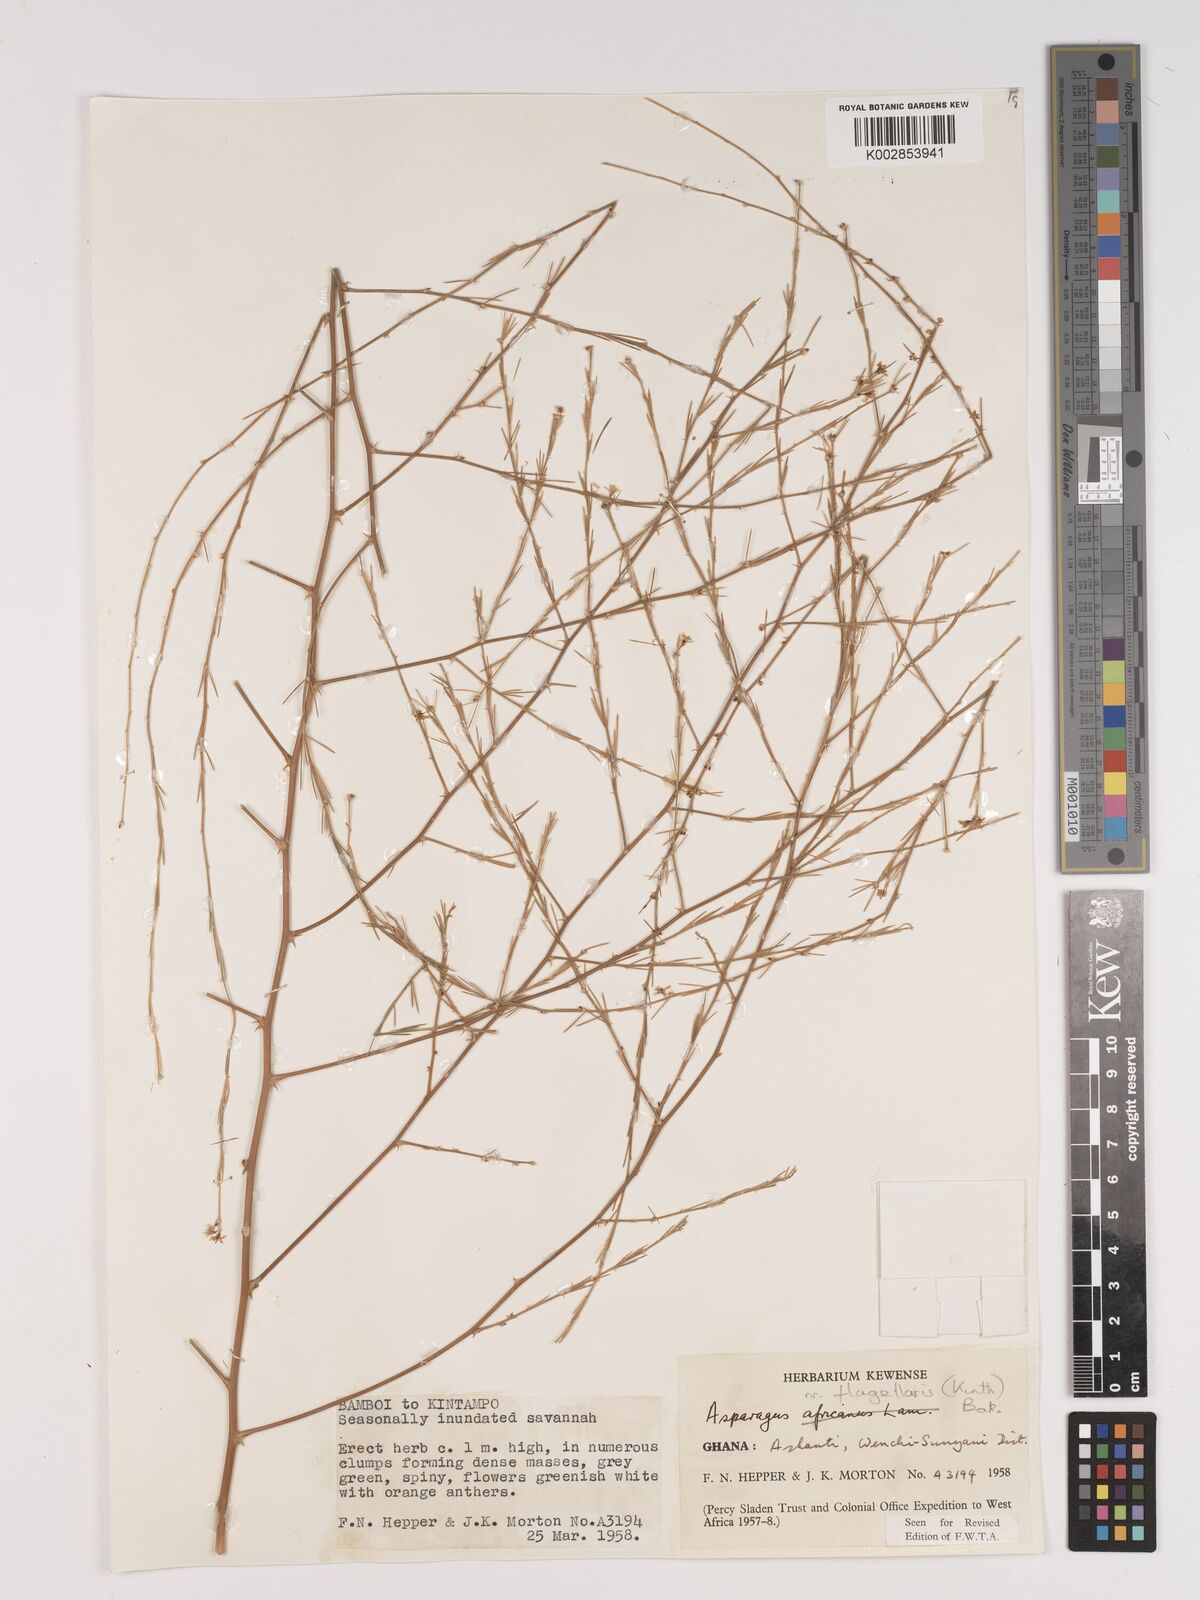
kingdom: Plantae
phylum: Tracheophyta
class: Liliopsida
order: Asparagales
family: Asparagaceae
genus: Asparagus
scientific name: Asparagus flagellaris
